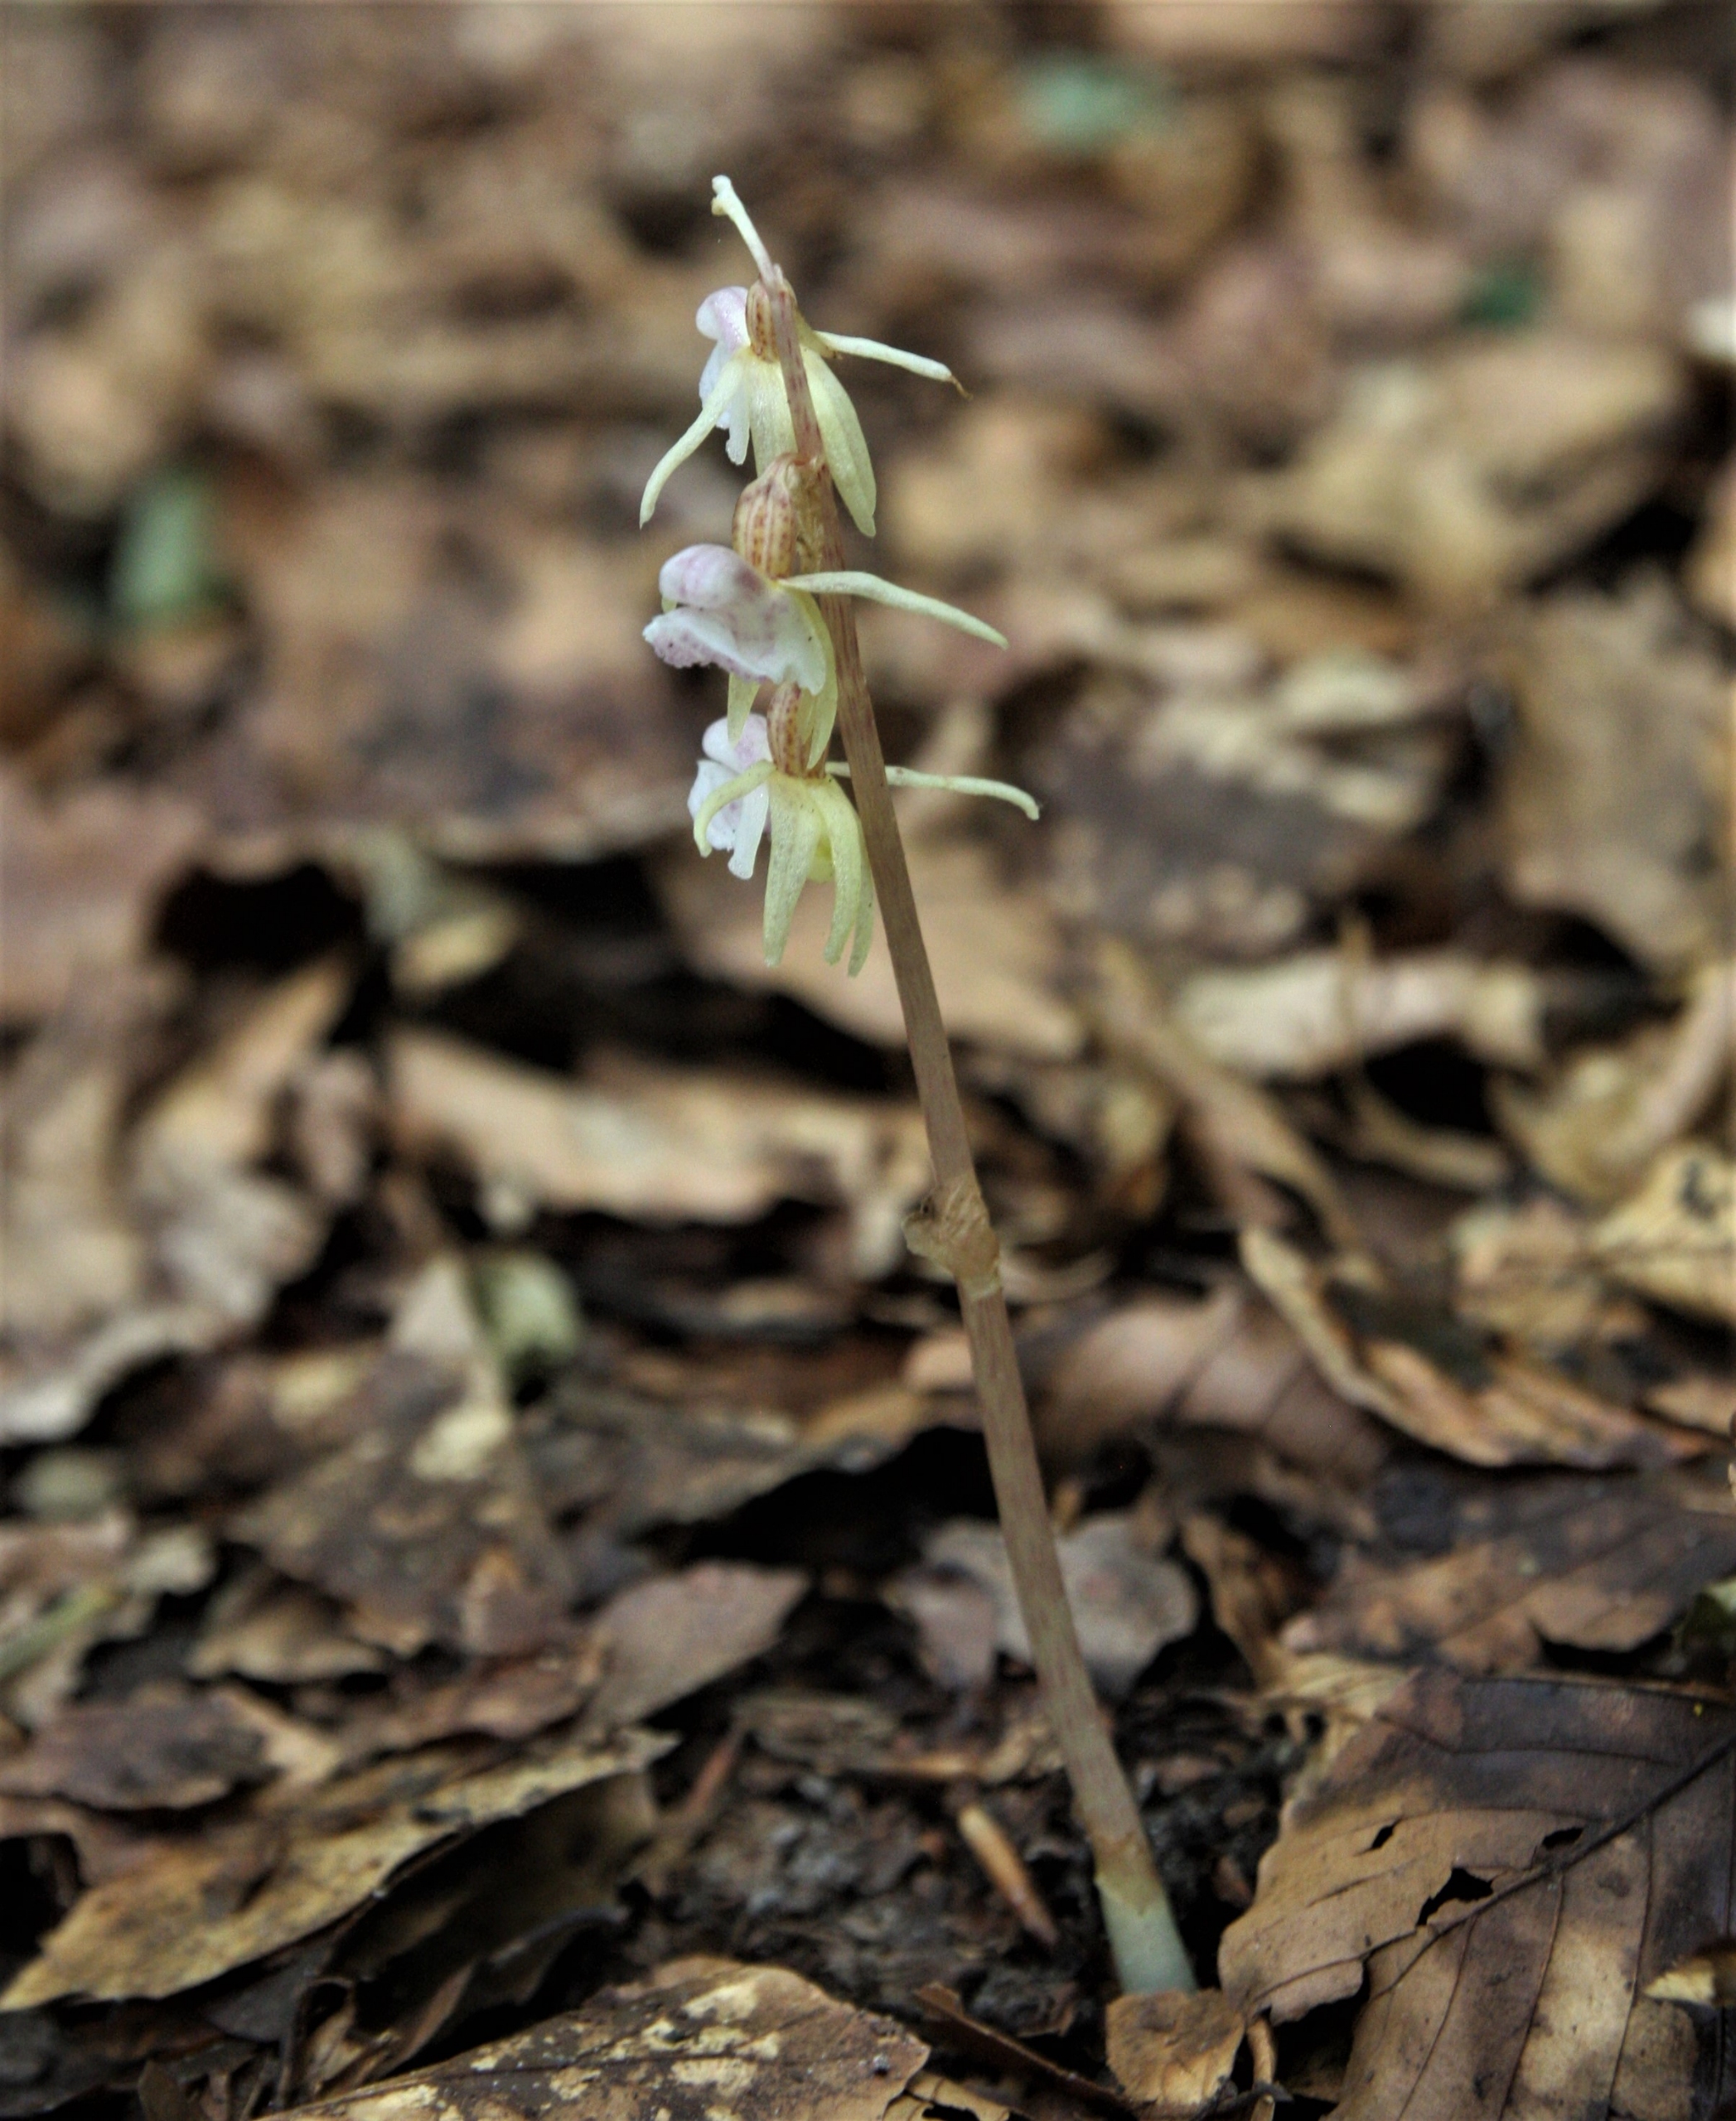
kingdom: Plantae
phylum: Tracheophyta
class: Liliopsida
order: Asparagales
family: Orchidaceae
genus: Epipogium
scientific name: Epipogium aphyllum
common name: Knælæbe
